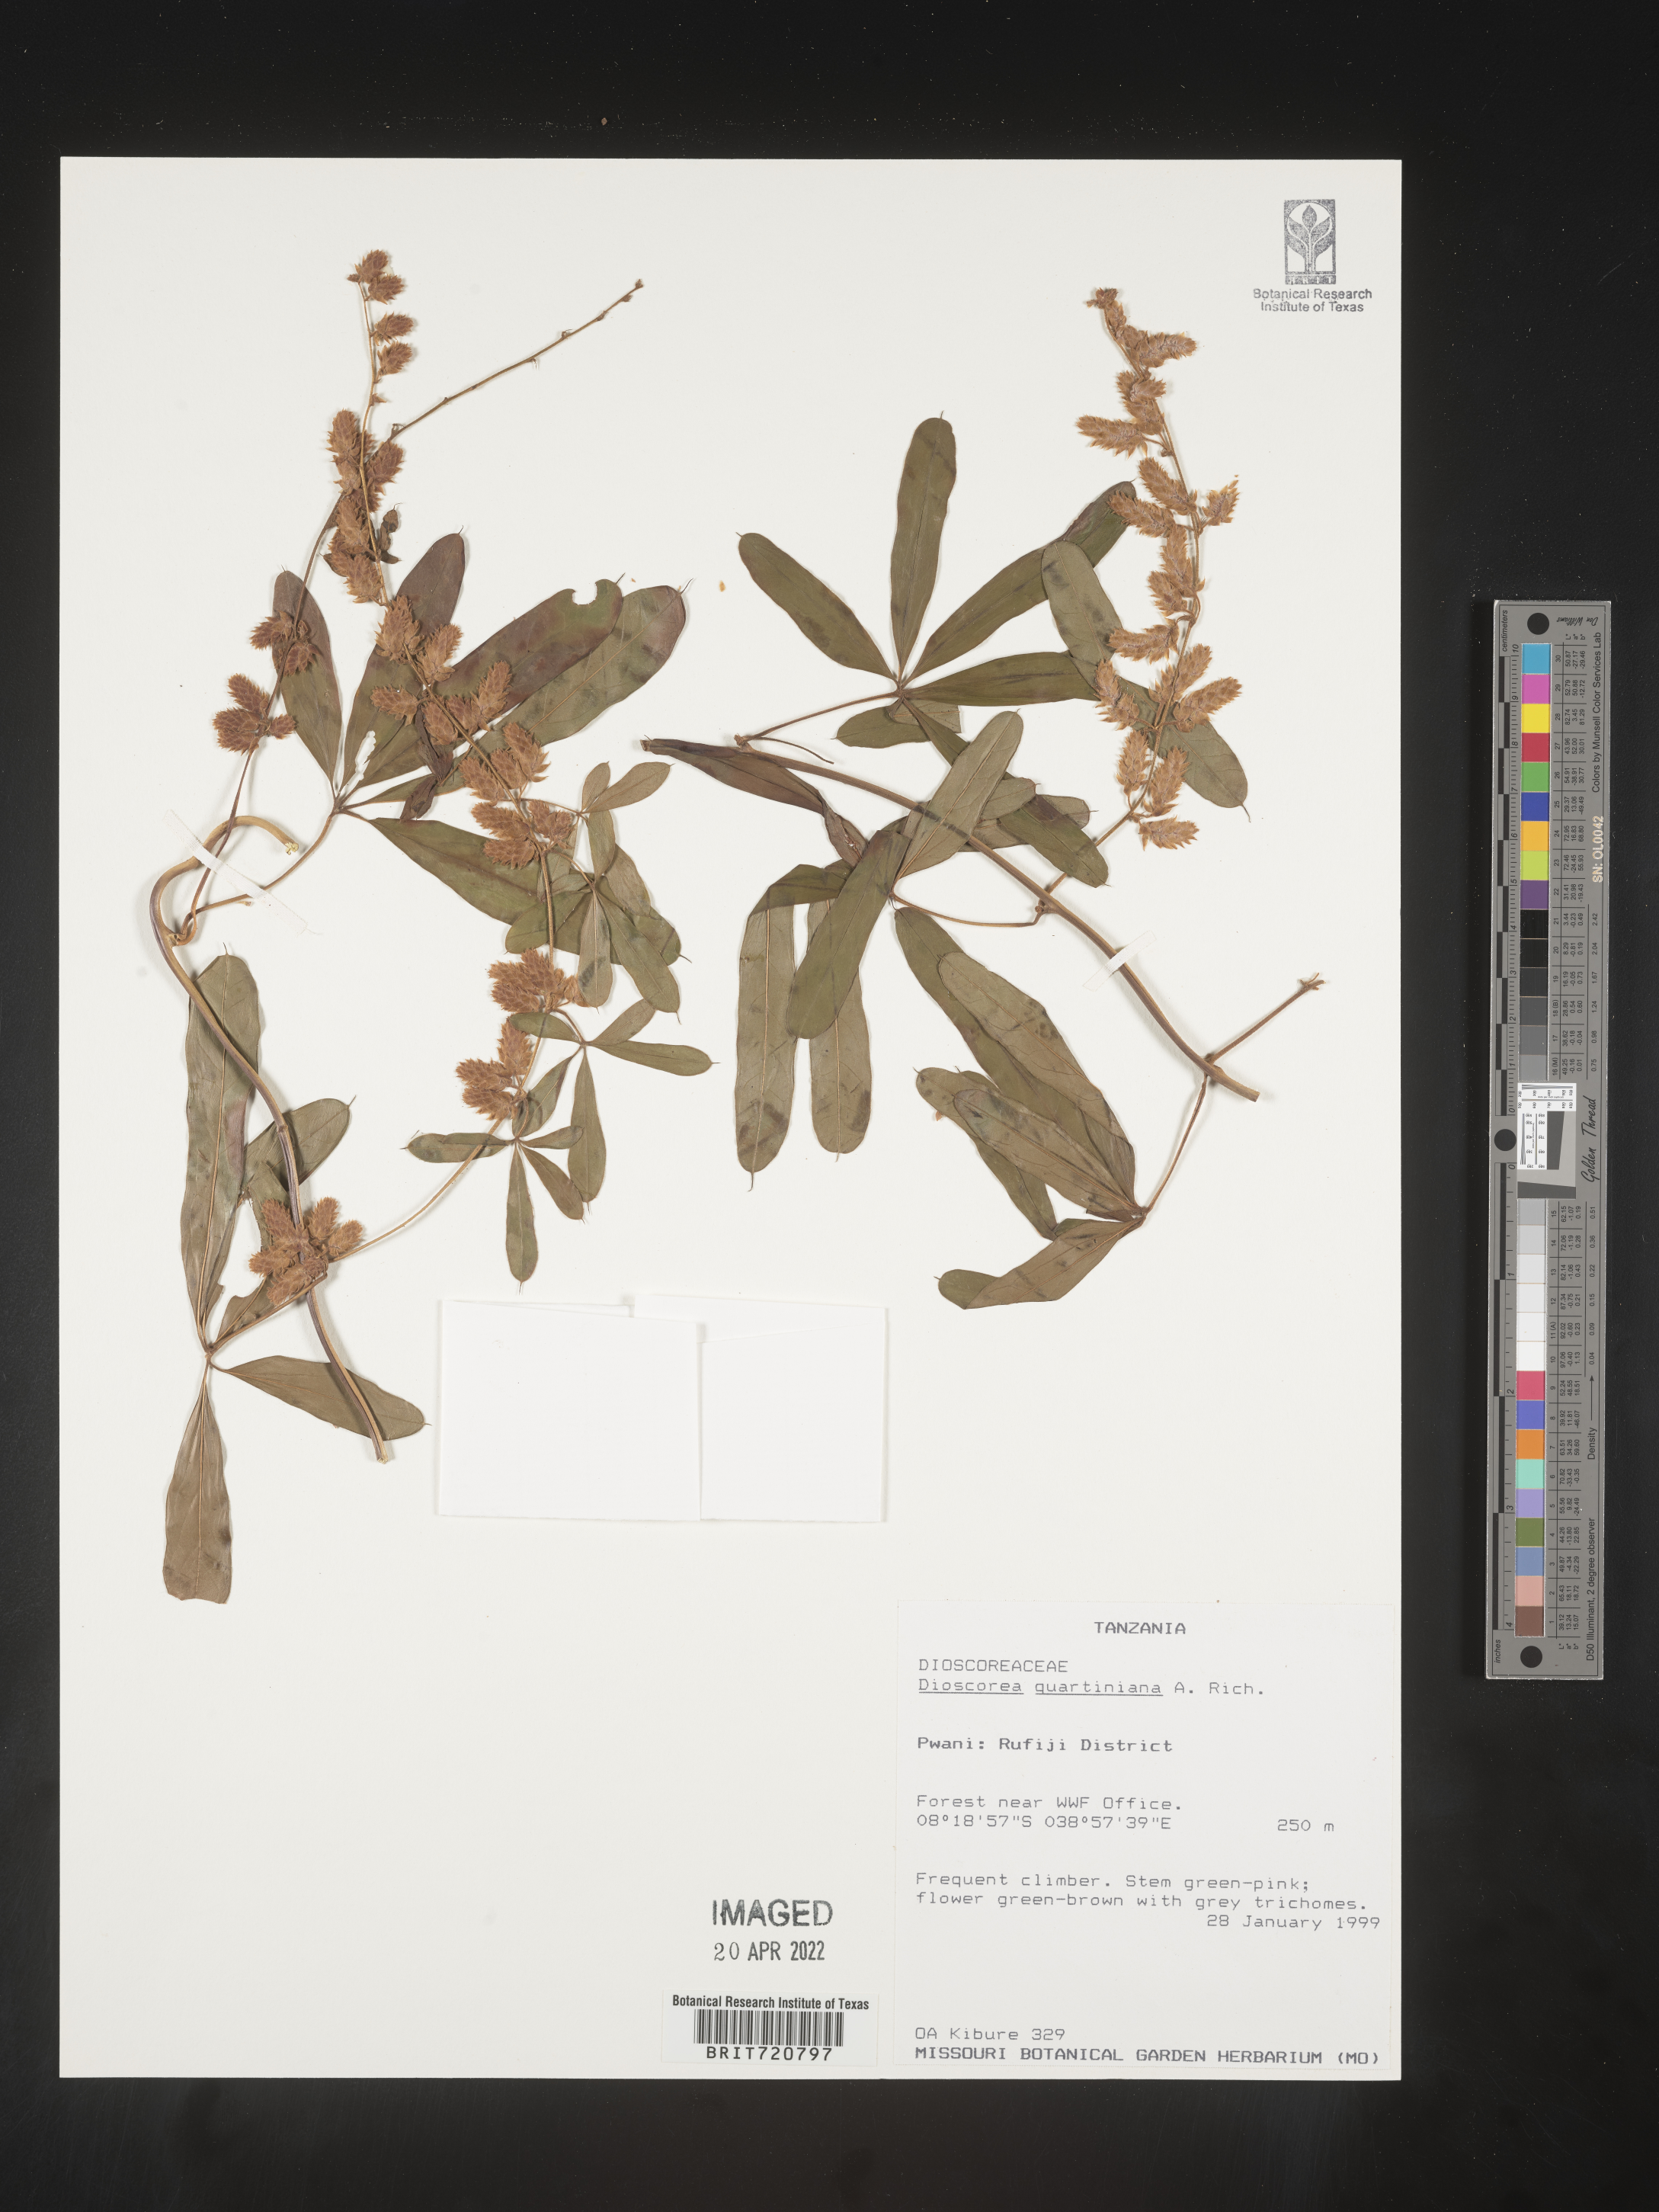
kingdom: Plantae
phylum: Tracheophyta
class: Liliopsida
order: Dioscoreales
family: Dioscoreaceae
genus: Dioscorea
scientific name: Dioscorea
